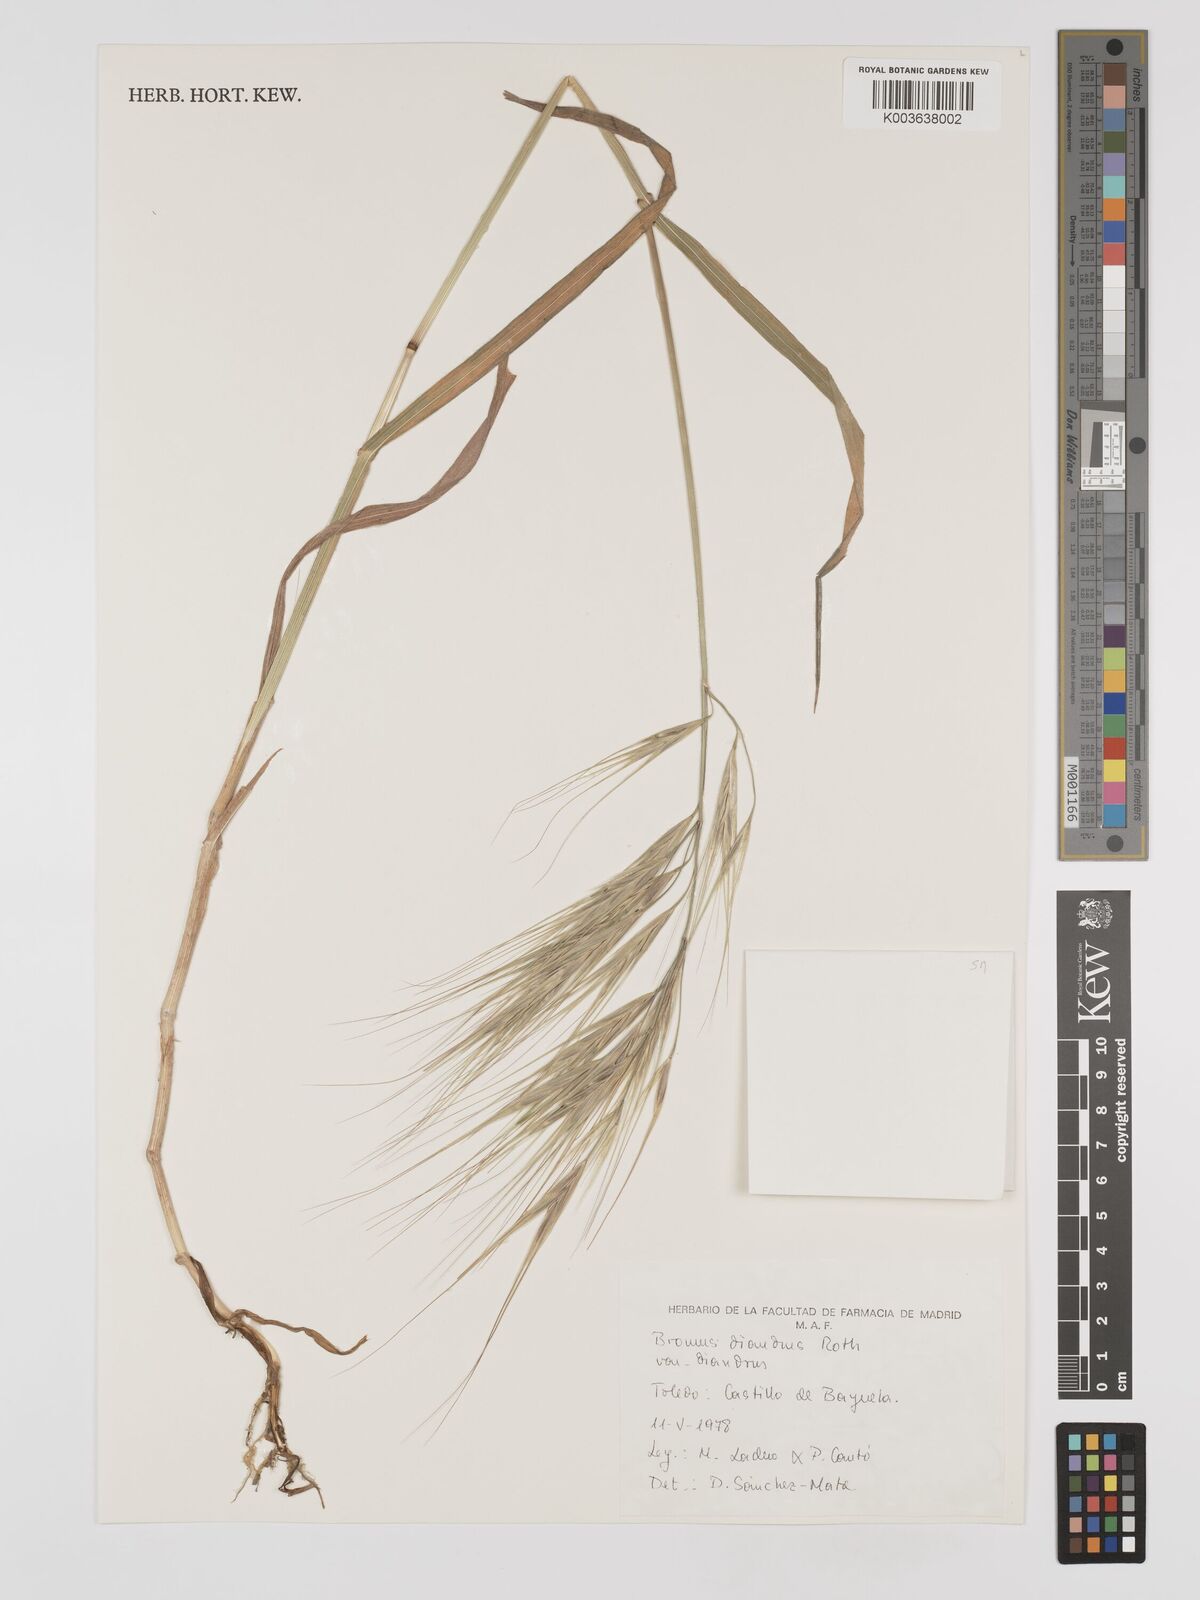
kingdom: Plantae
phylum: Tracheophyta
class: Liliopsida
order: Poales
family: Poaceae
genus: Bromus
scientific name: Bromus
